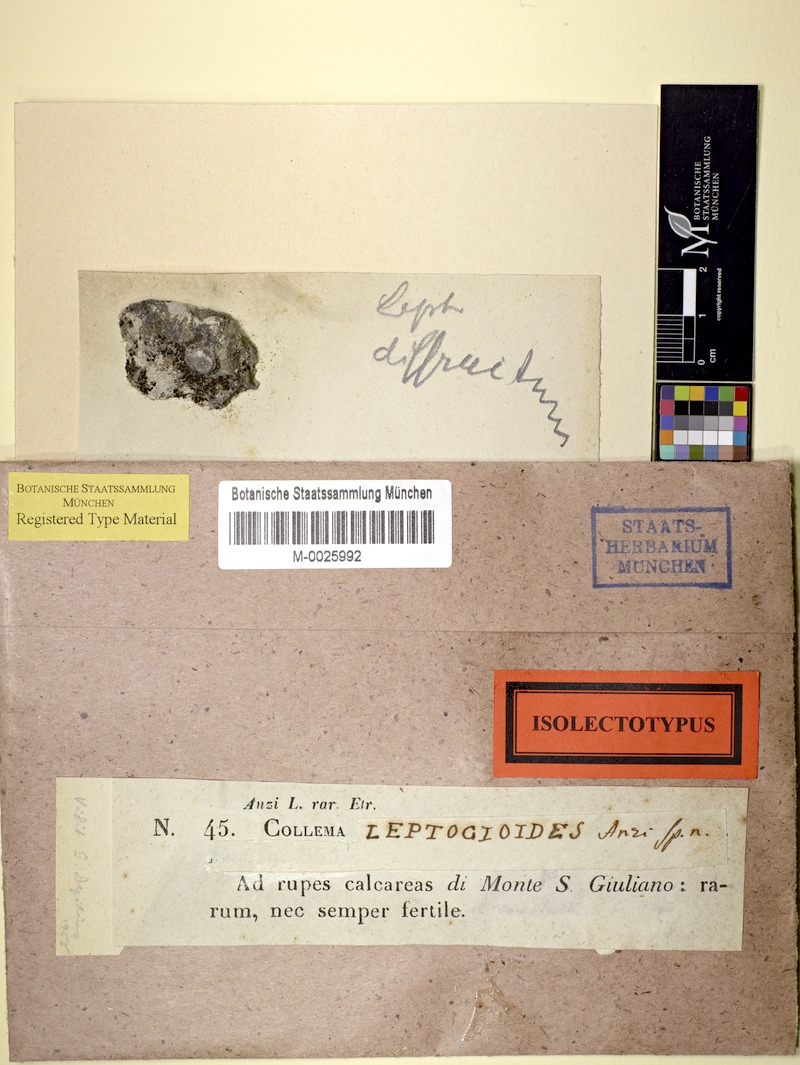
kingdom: Fungi
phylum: Ascomycota
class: Lecanoromycetes
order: Peltigerales
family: Collemataceae
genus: Scytinium
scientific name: Scytinium leptogioides
